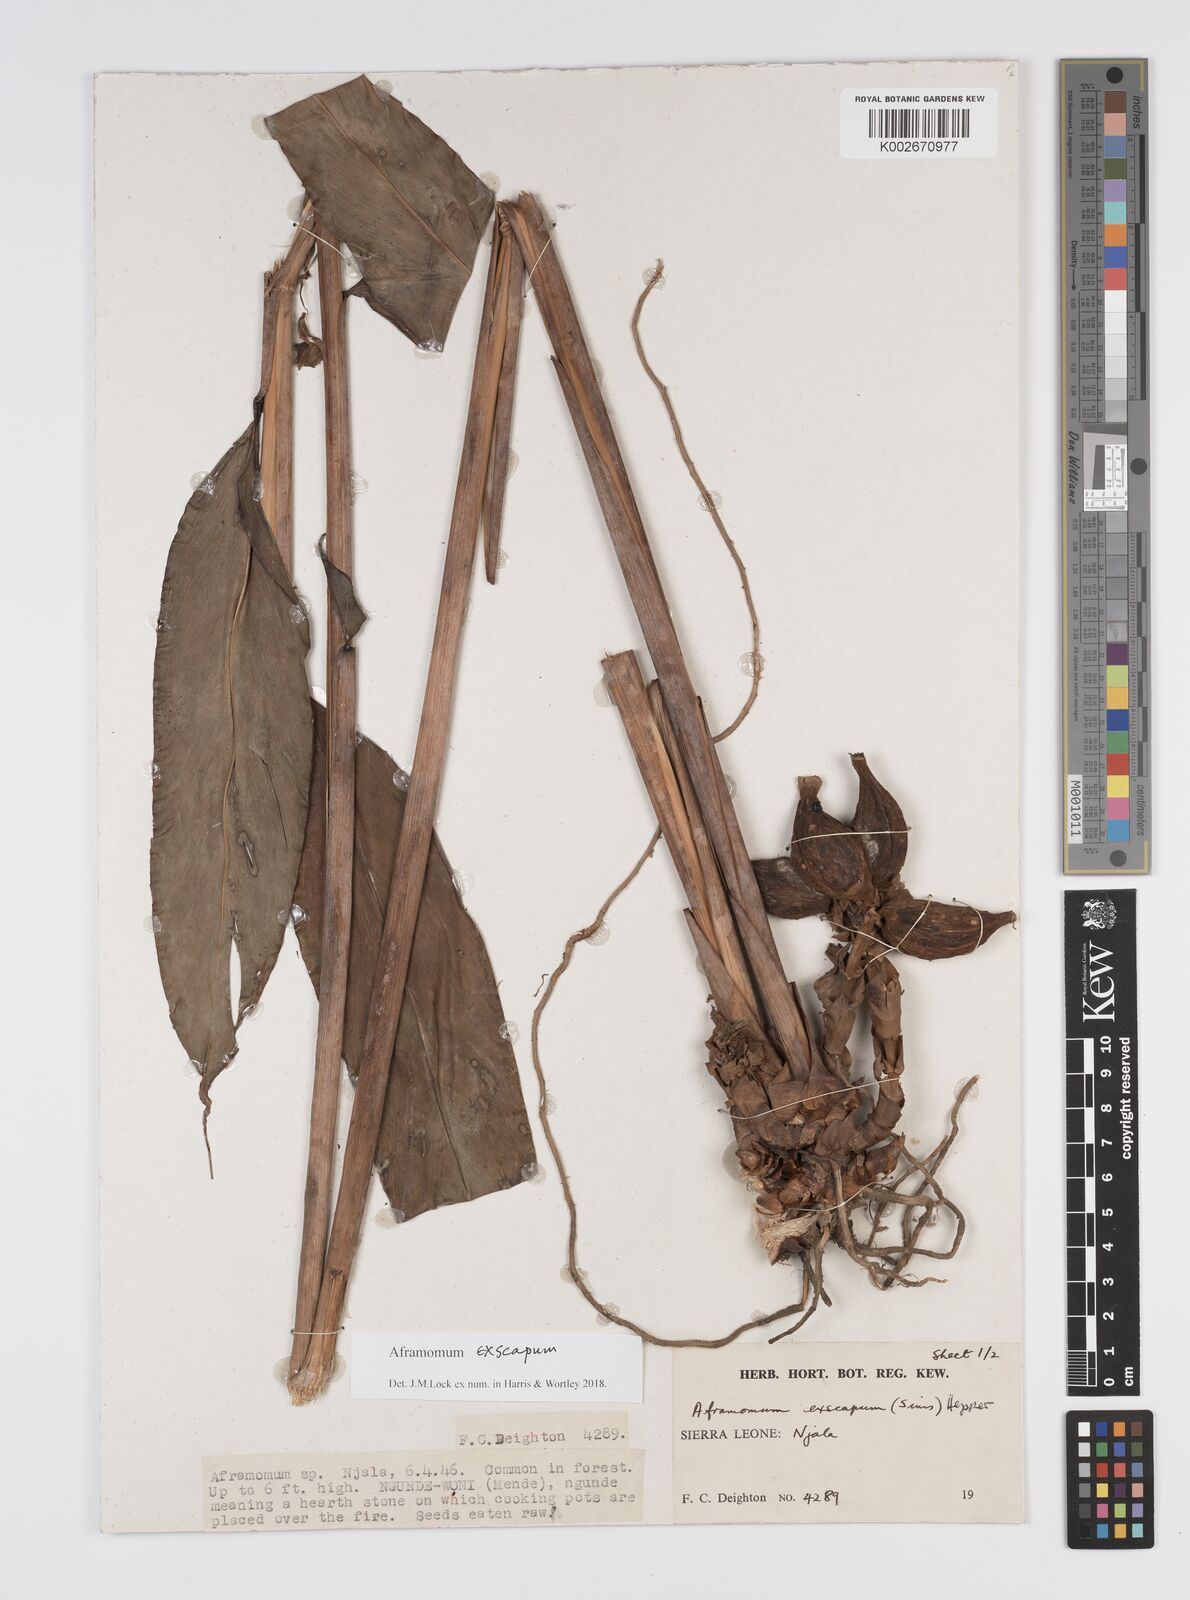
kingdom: Plantae
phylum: Tracheophyta
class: Liliopsida
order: Zingiberales
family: Zingiberaceae
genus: Aframomum
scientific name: Aframomum exscapum
